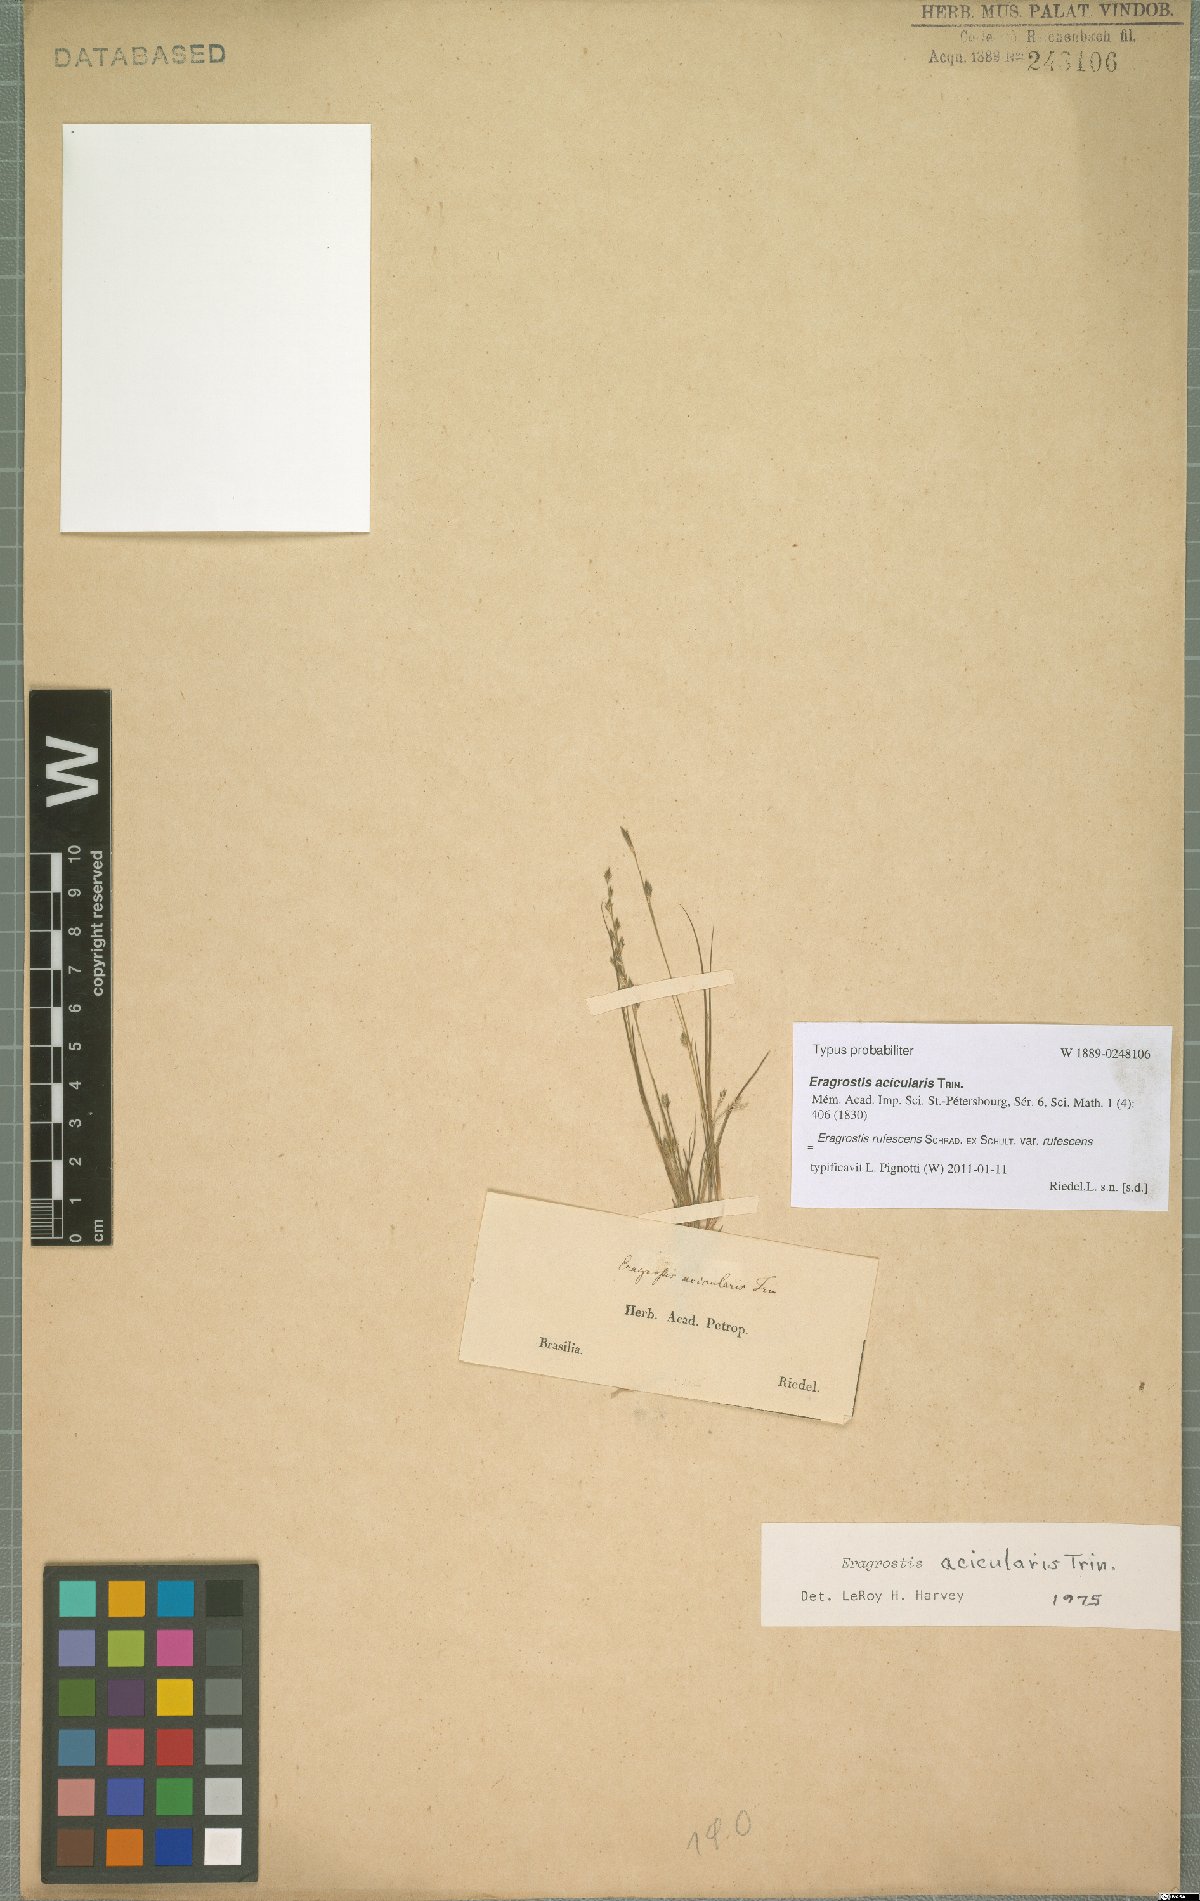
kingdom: Plantae
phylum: Tracheophyta
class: Liliopsida
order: Poales
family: Poaceae
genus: Eragrostis
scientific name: Eragrostis rufescens
